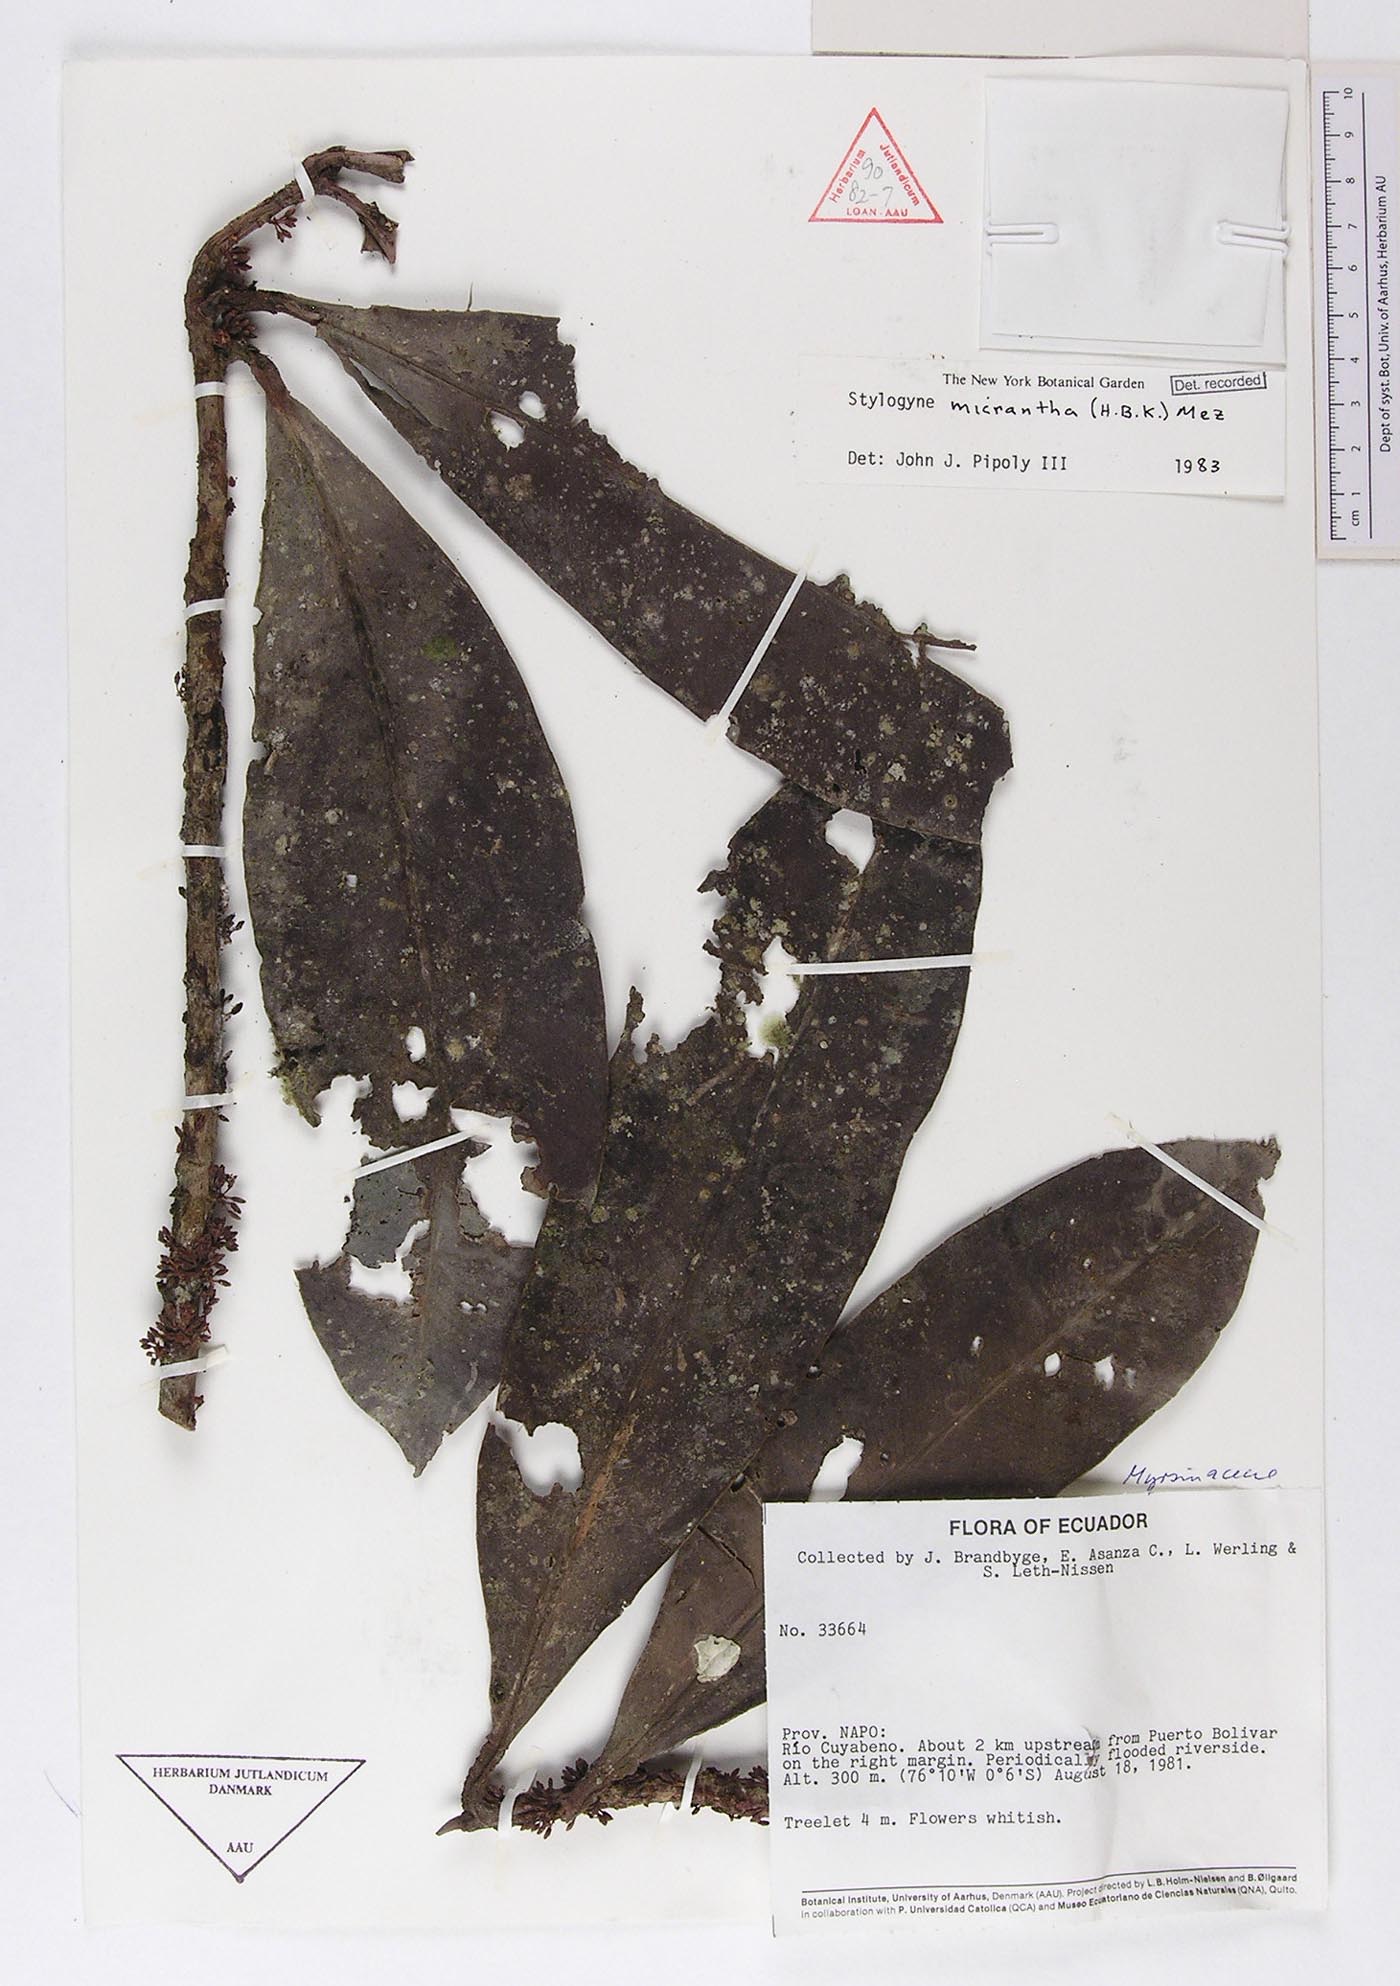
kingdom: Plantae
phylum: Tracheophyta
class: Magnoliopsida
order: Ericales
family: Primulaceae
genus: Stylogyne
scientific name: Stylogyne micrantha
